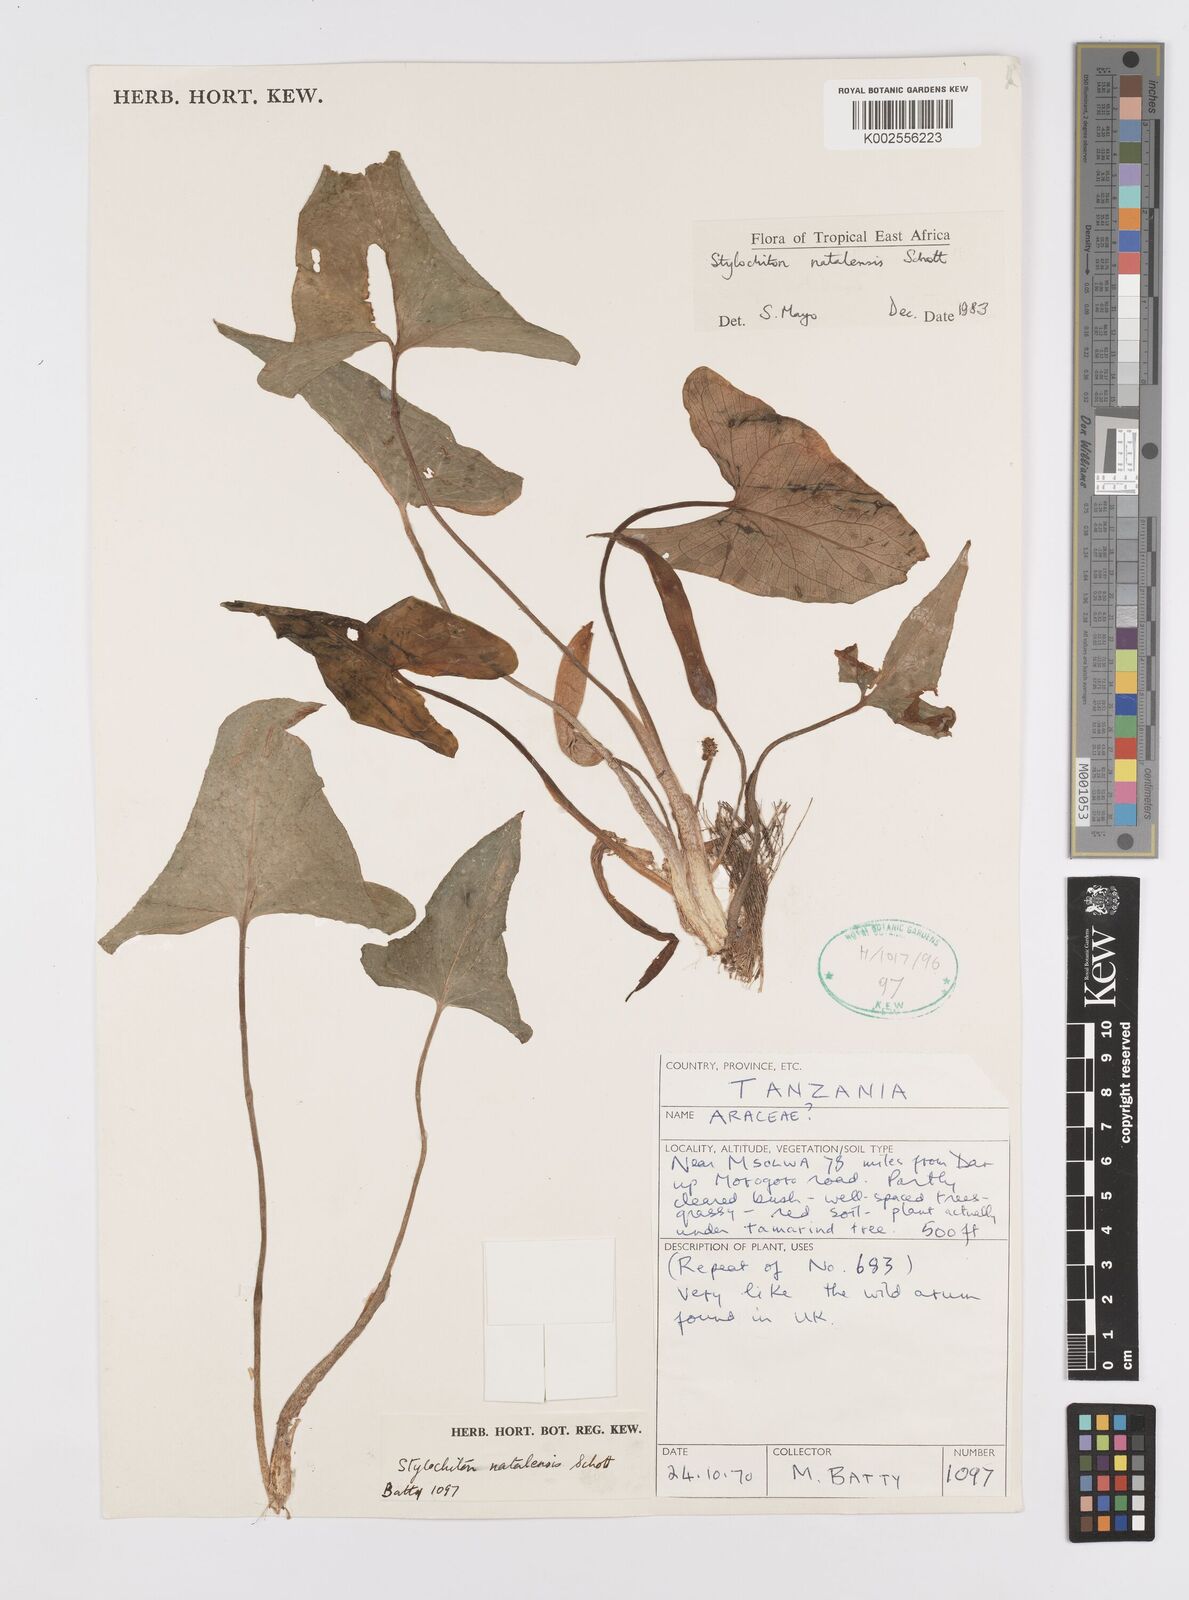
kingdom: Plantae
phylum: Tracheophyta
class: Liliopsida
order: Alismatales
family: Araceae
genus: Stylochaeton
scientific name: Stylochaeton natalense
